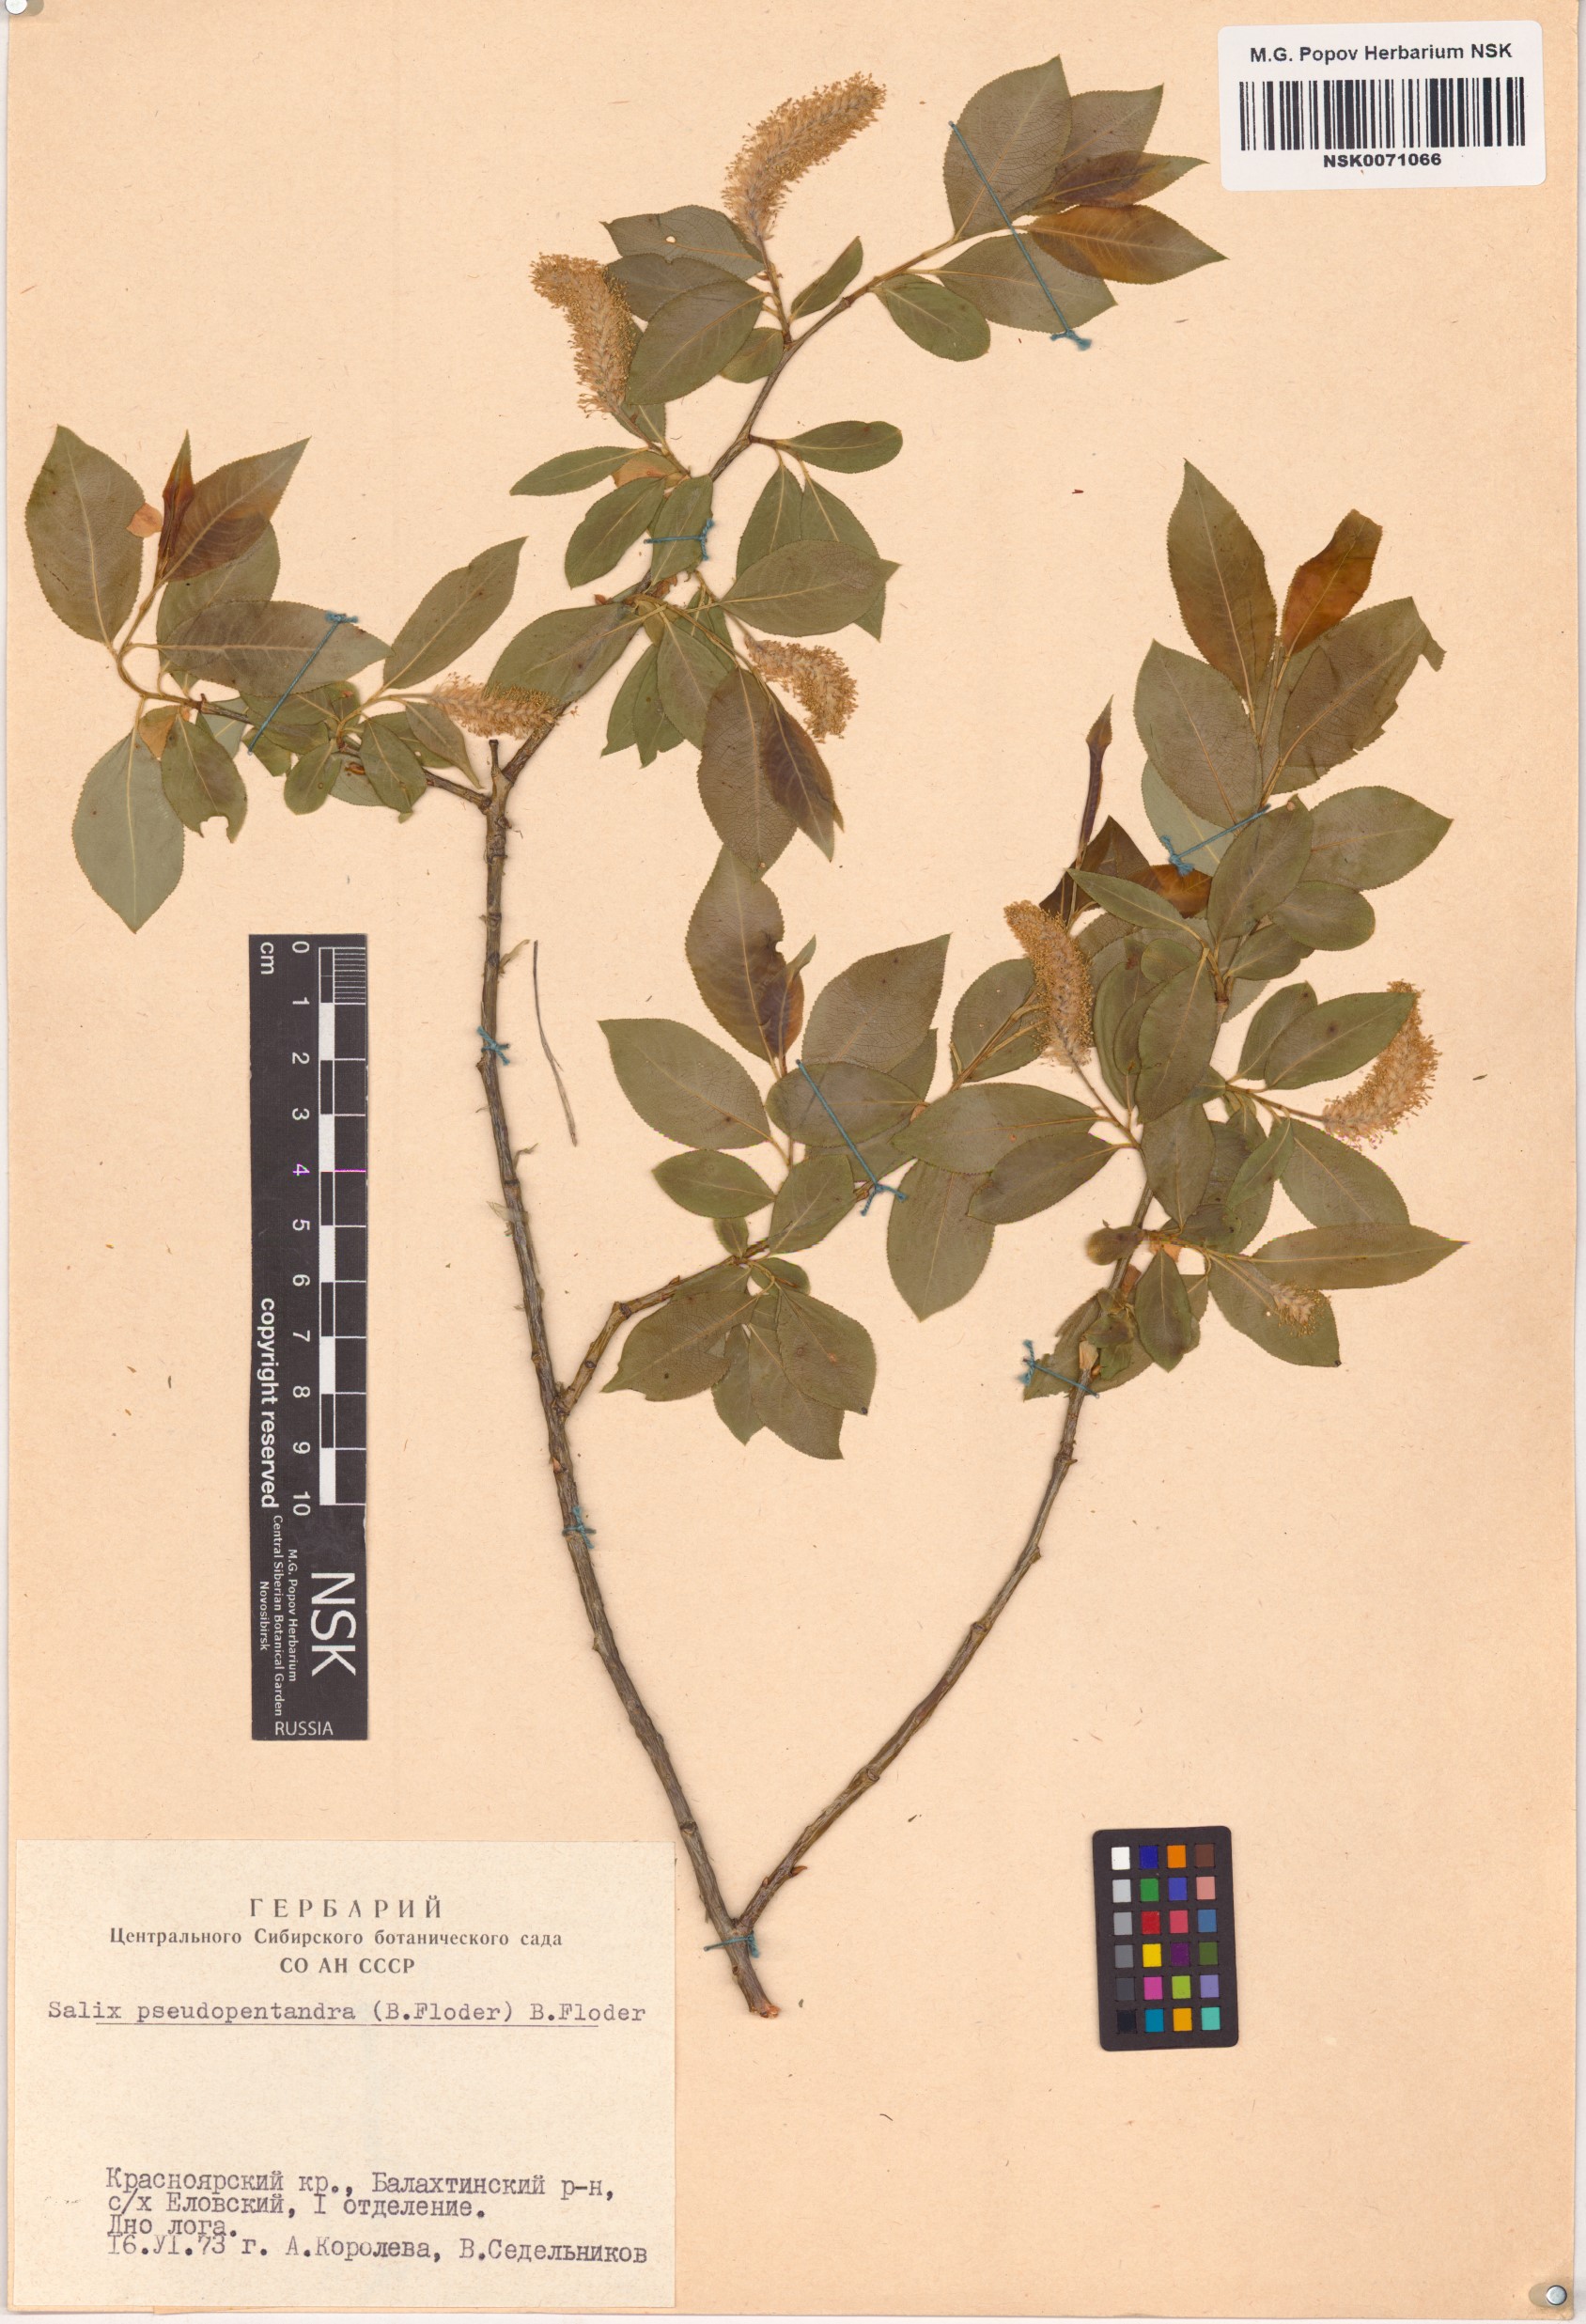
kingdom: Plantae
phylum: Tracheophyta
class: Magnoliopsida
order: Malpighiales
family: Salicaceae
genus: Salix
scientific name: Salix pseudopentandra
